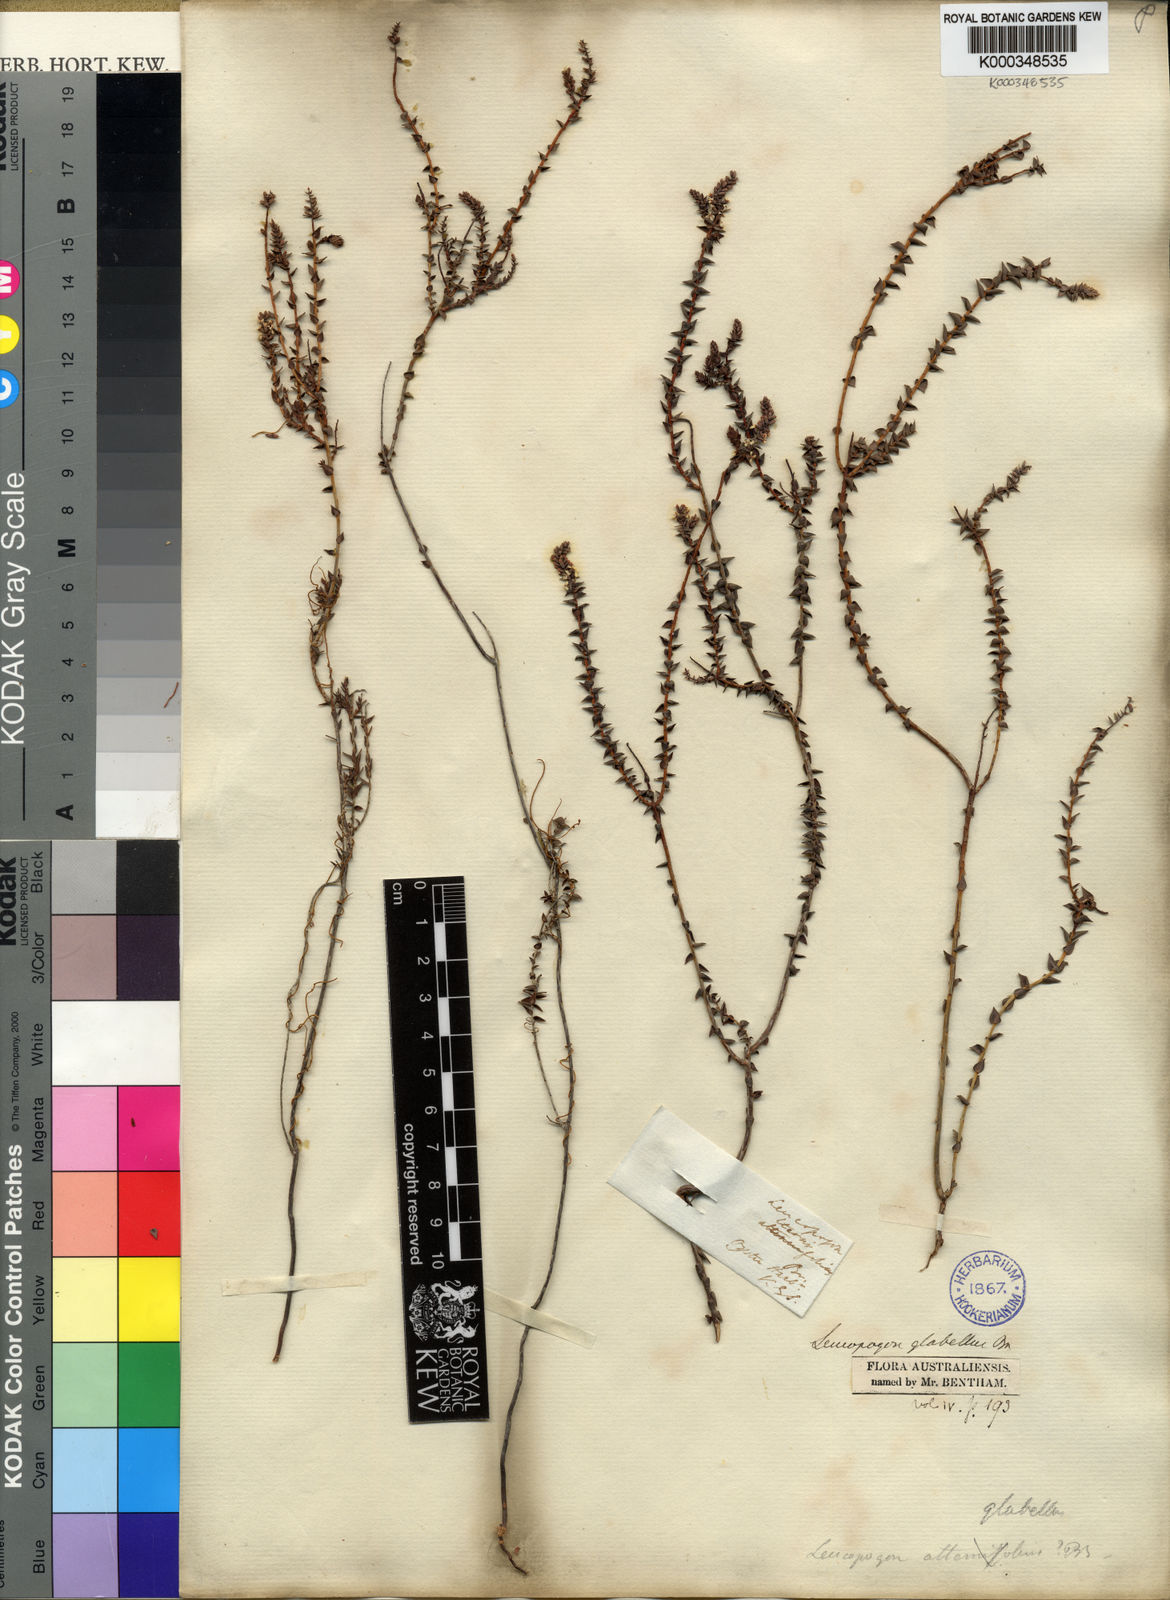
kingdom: Plantae
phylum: Tracheophyta
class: Magnoliopsida
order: Ericales
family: Ericaceae
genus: Leucopogon
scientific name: Leucopogon glabellus
